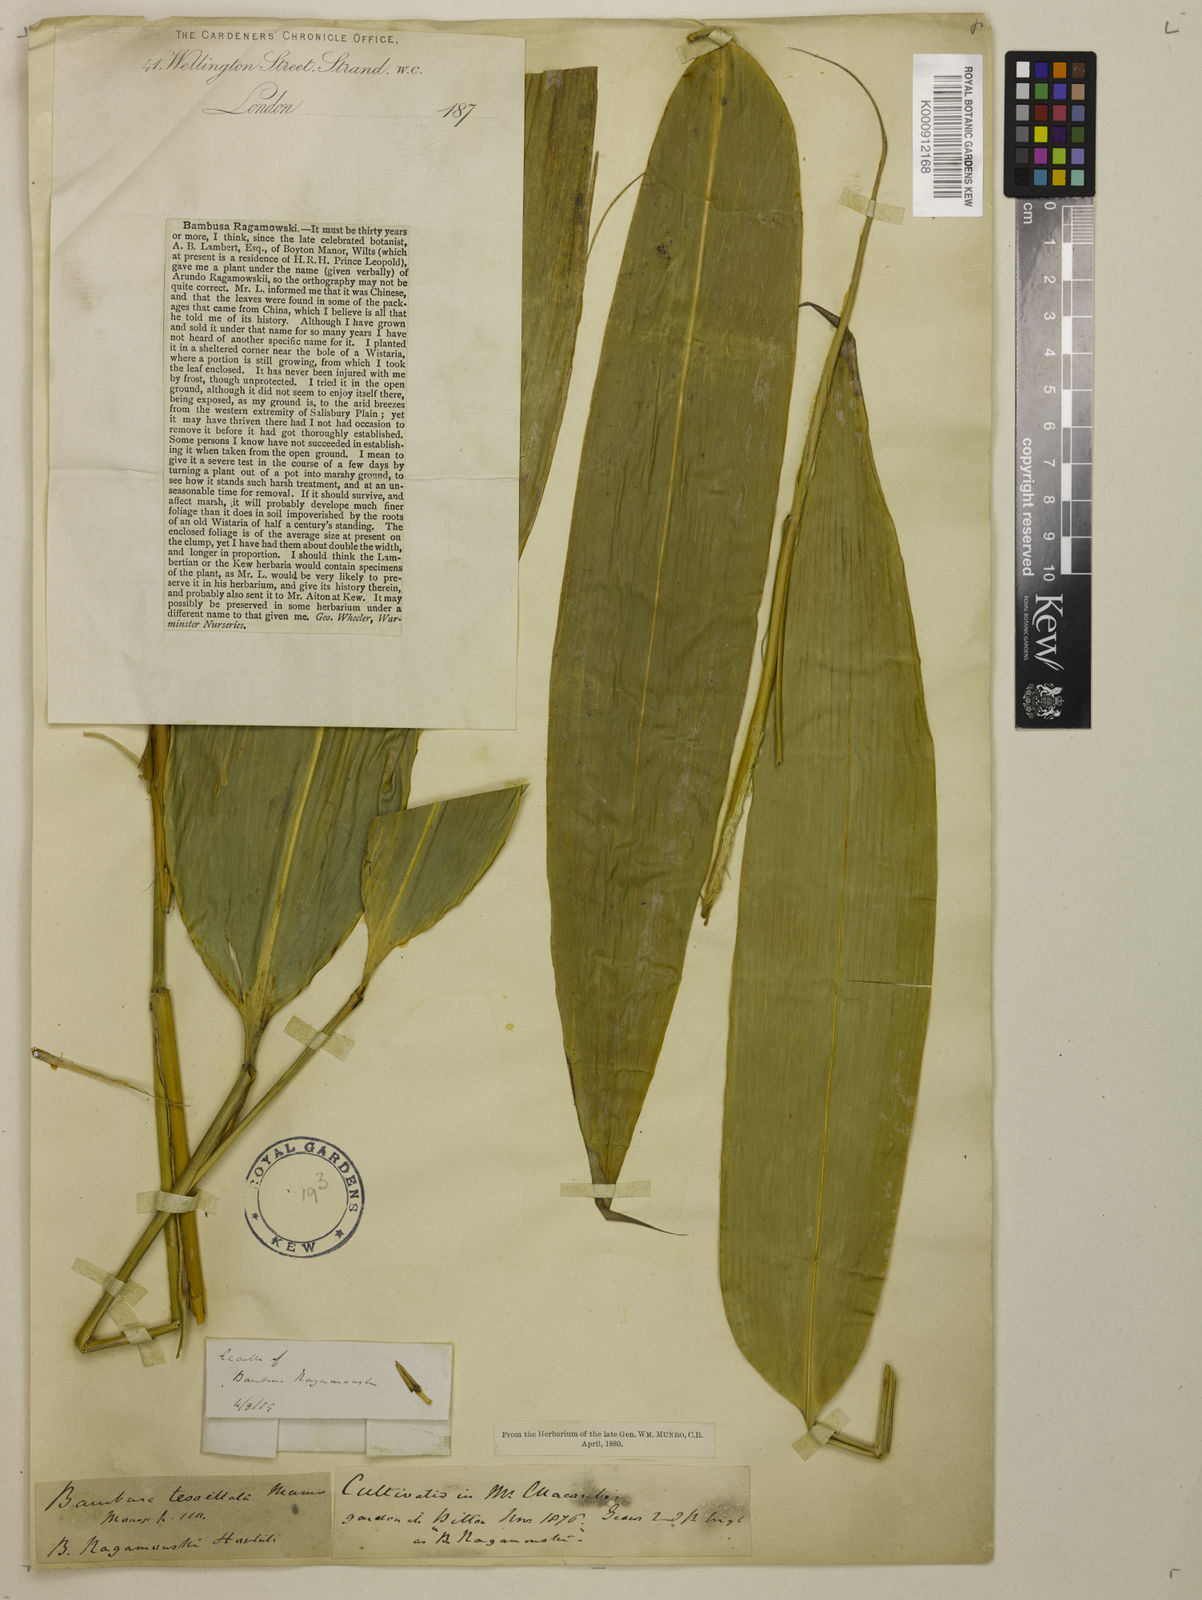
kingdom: Plantae
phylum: Tracheophyta
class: Liliopsida
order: Poales
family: Poaceae
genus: Indocalamus
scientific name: Indocalamus tessellatus
